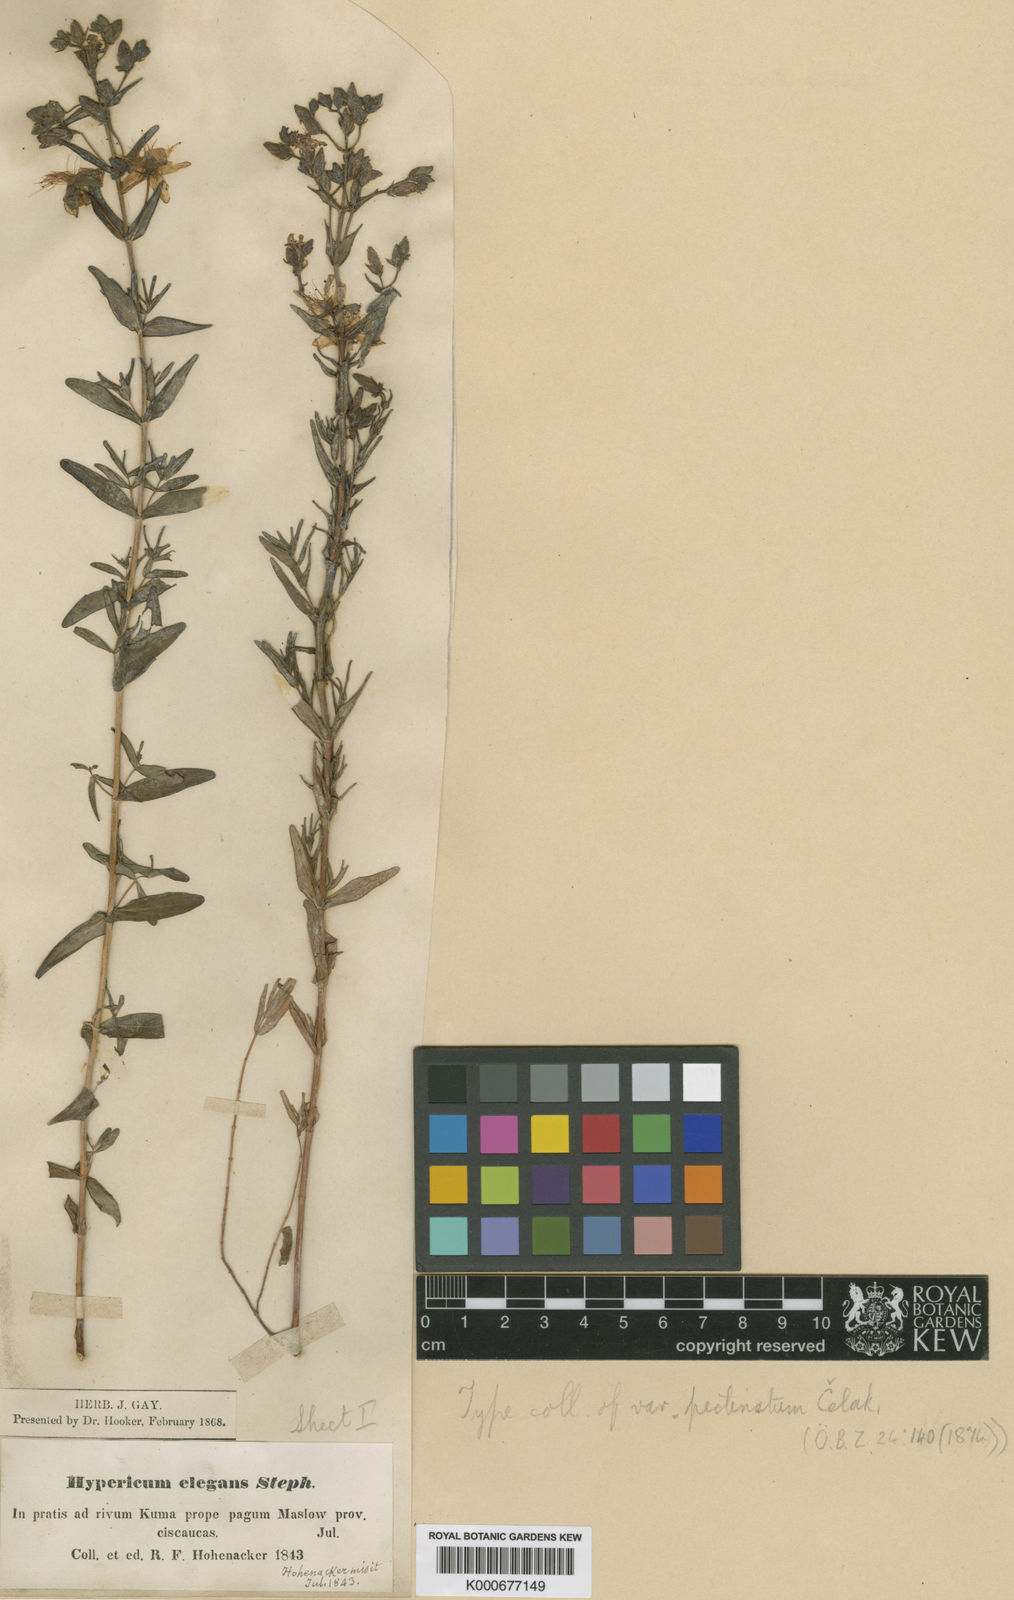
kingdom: Plantae
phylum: Tracheophyta
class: Magnoliopsida
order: Malpighiales
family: Hypericaceae
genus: Hypericum
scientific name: Hypericum
